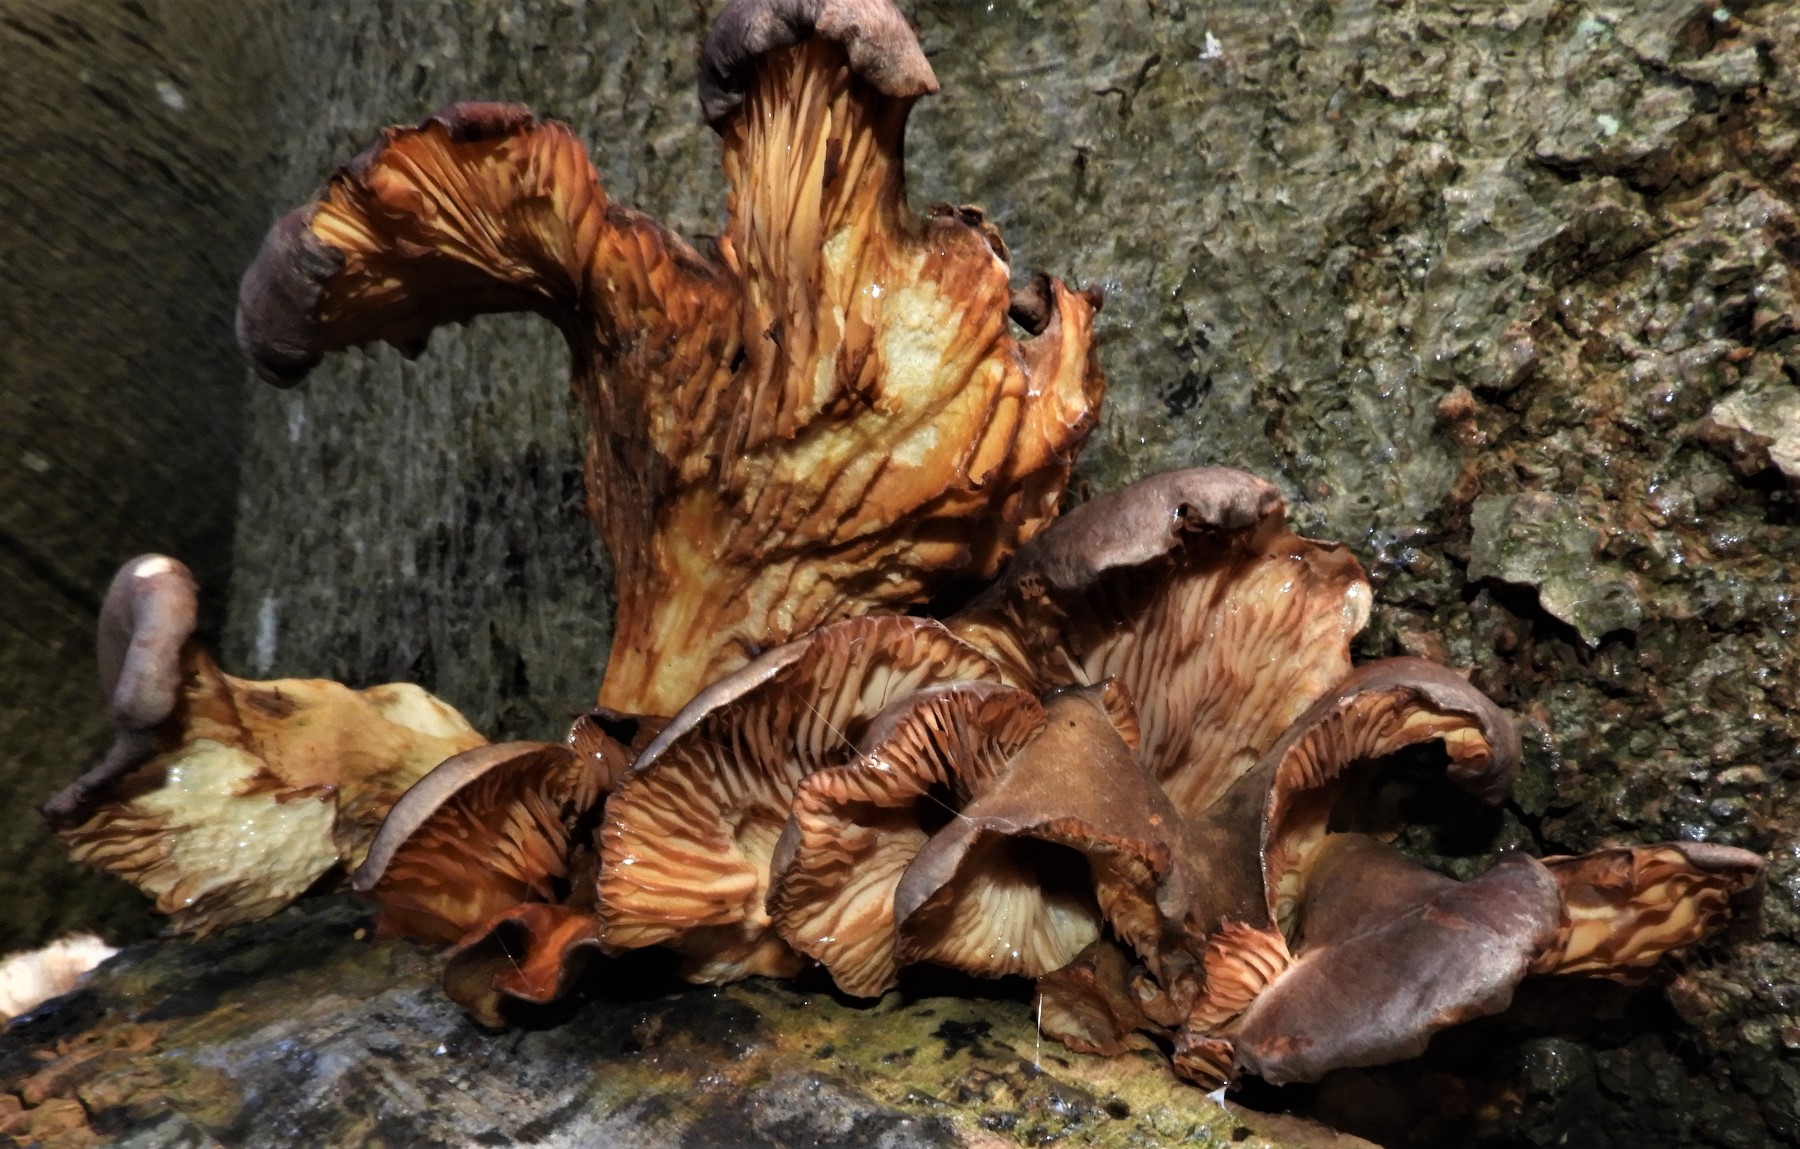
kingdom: Fungi
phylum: Basidiomycota
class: Agaricomycetes
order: Agaricales
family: Pleurotaceae
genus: Pleurotus
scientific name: Pleurotus ostreatus
